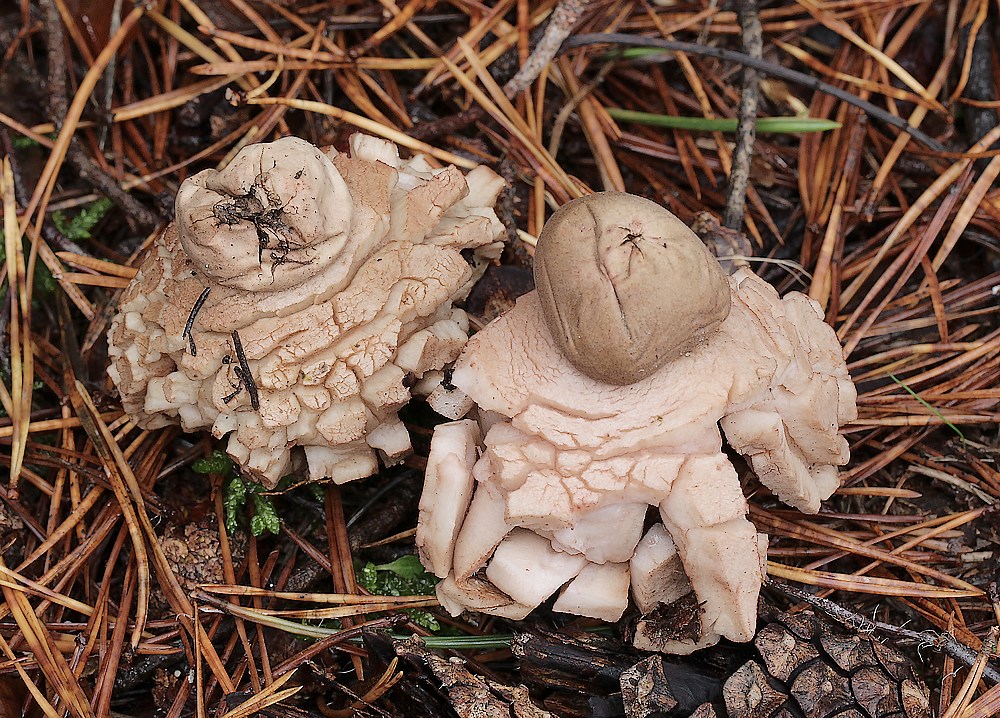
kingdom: Fungi
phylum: Basidiomycota
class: Agaricomycetes
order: Geastrales
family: Geastraceae
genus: Geastrum
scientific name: Geastrum rufescens
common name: kødfarvet stjernebold
